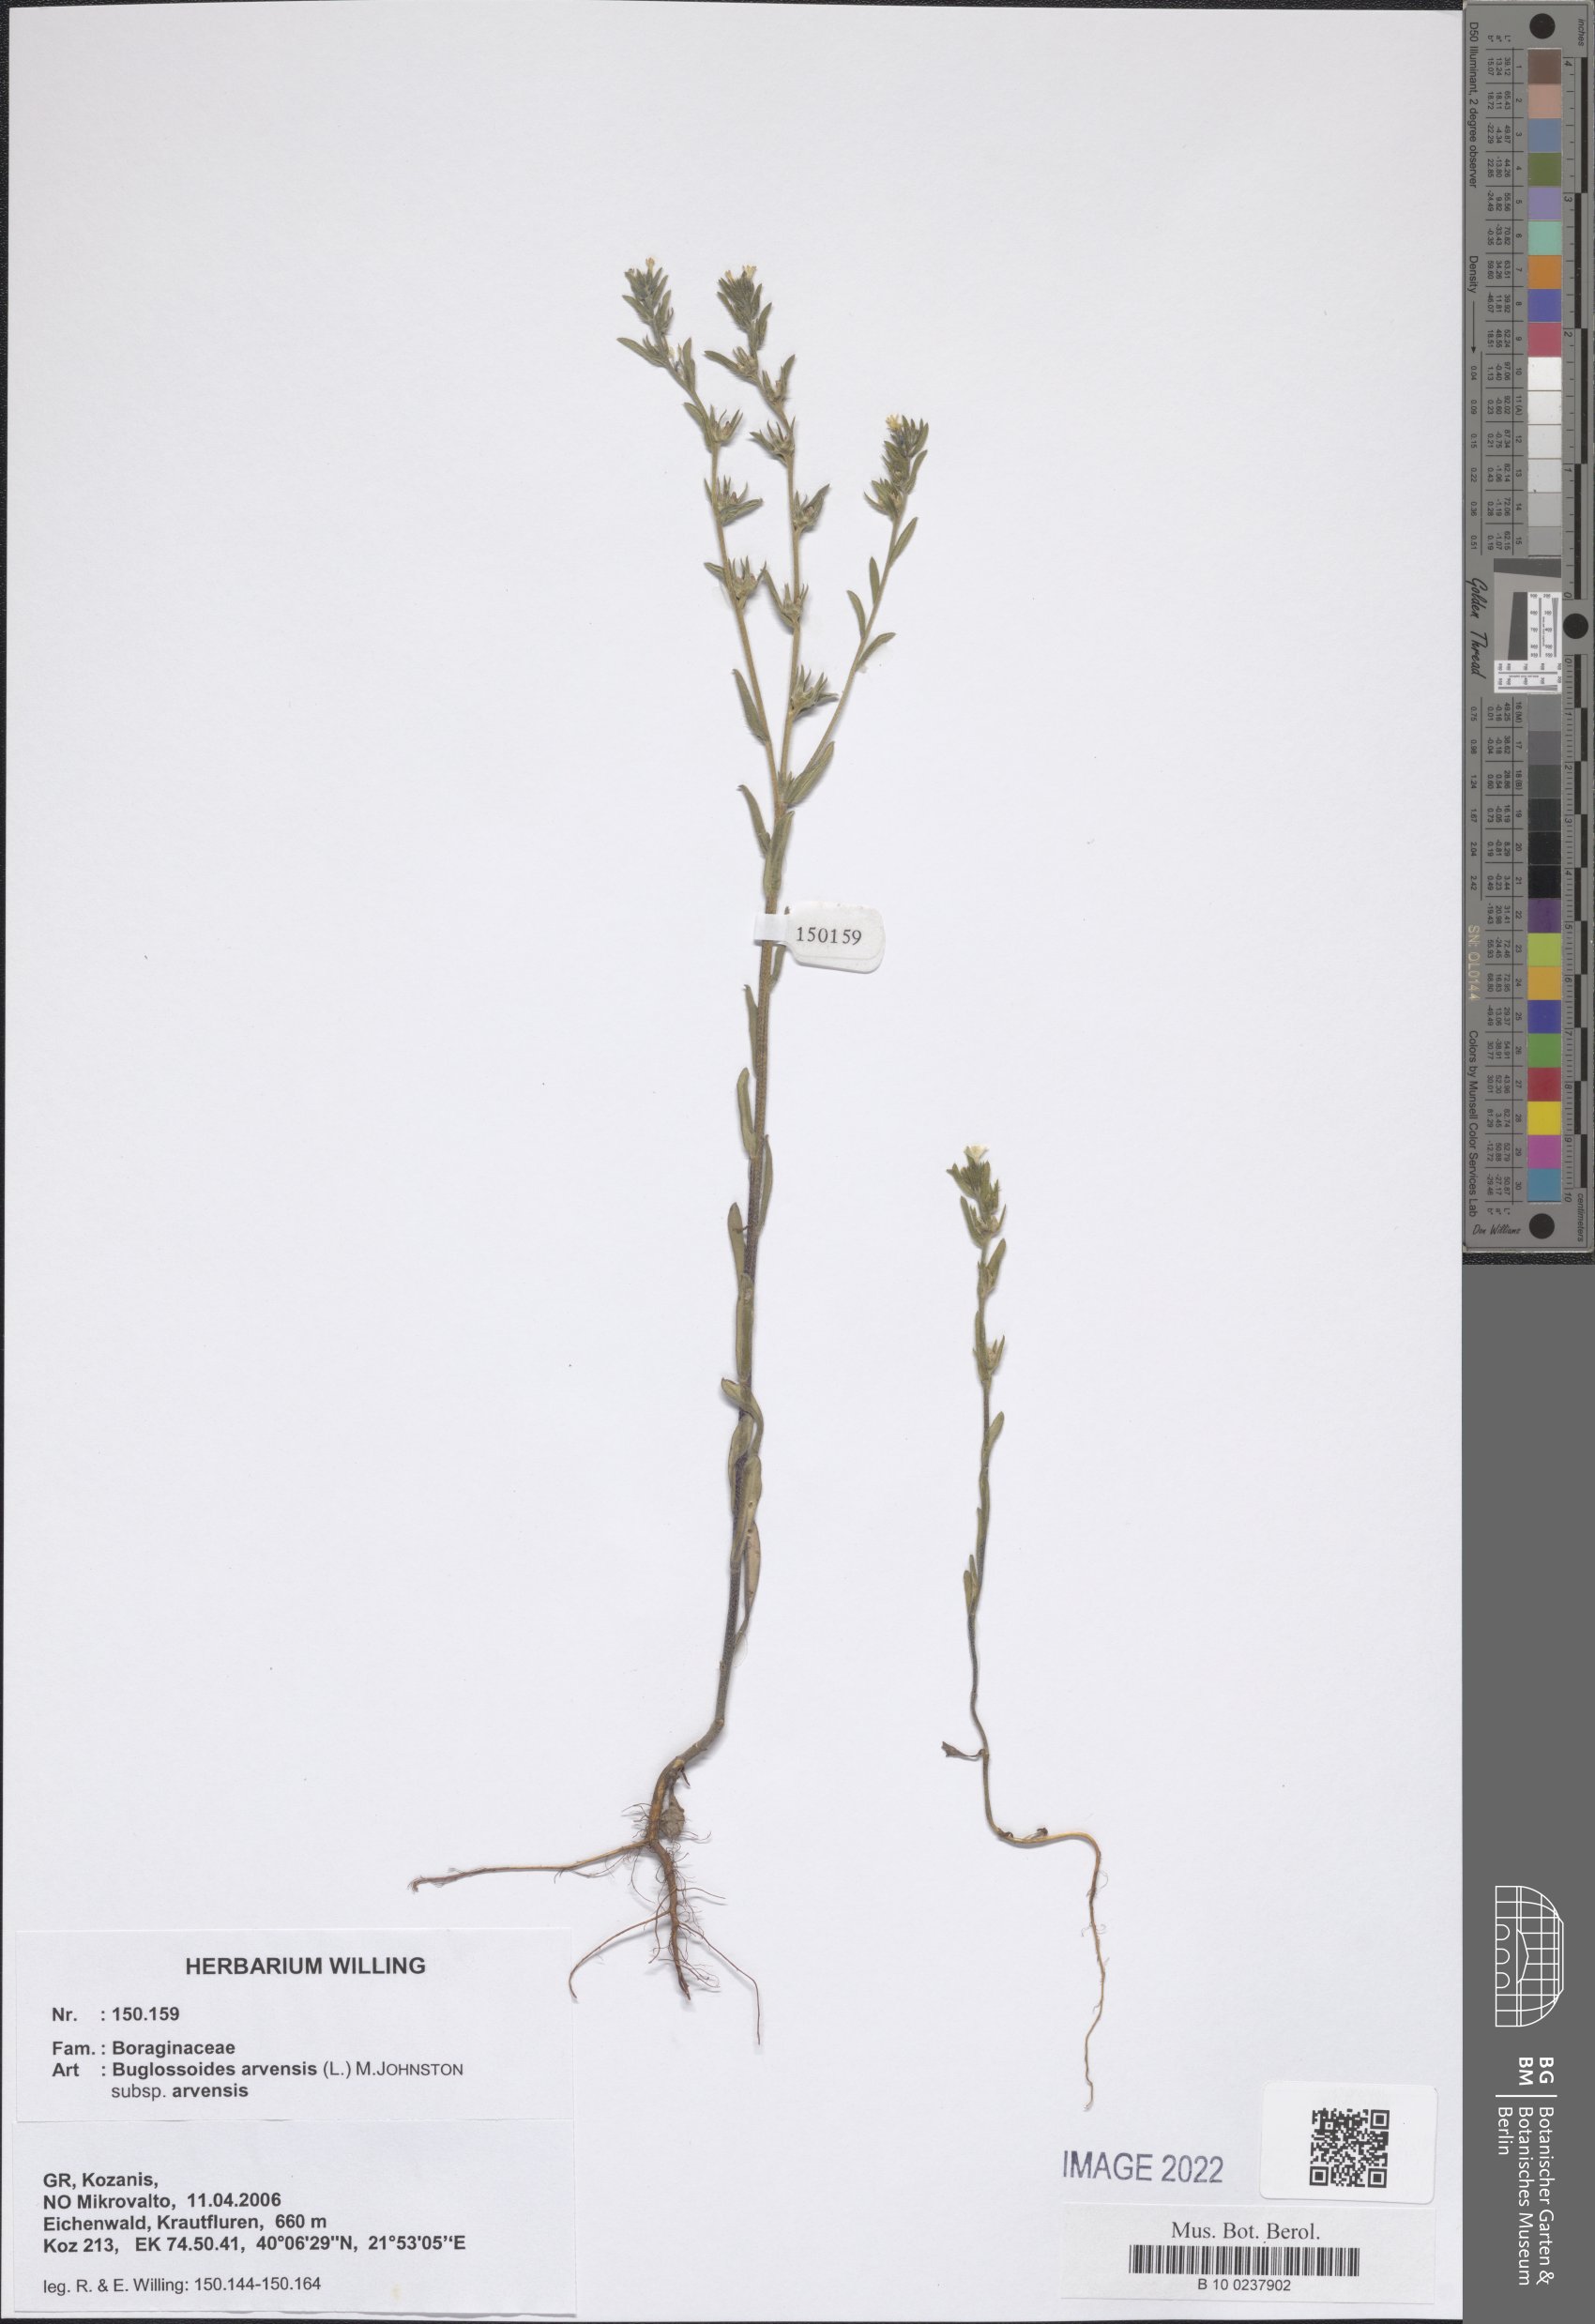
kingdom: Plantae
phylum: Tracheophyta
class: Magnoliopsida
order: Boraginales
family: Boraginaceae
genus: Buglossoides
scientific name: Buglossoides arvensis
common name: Corn gromwell
